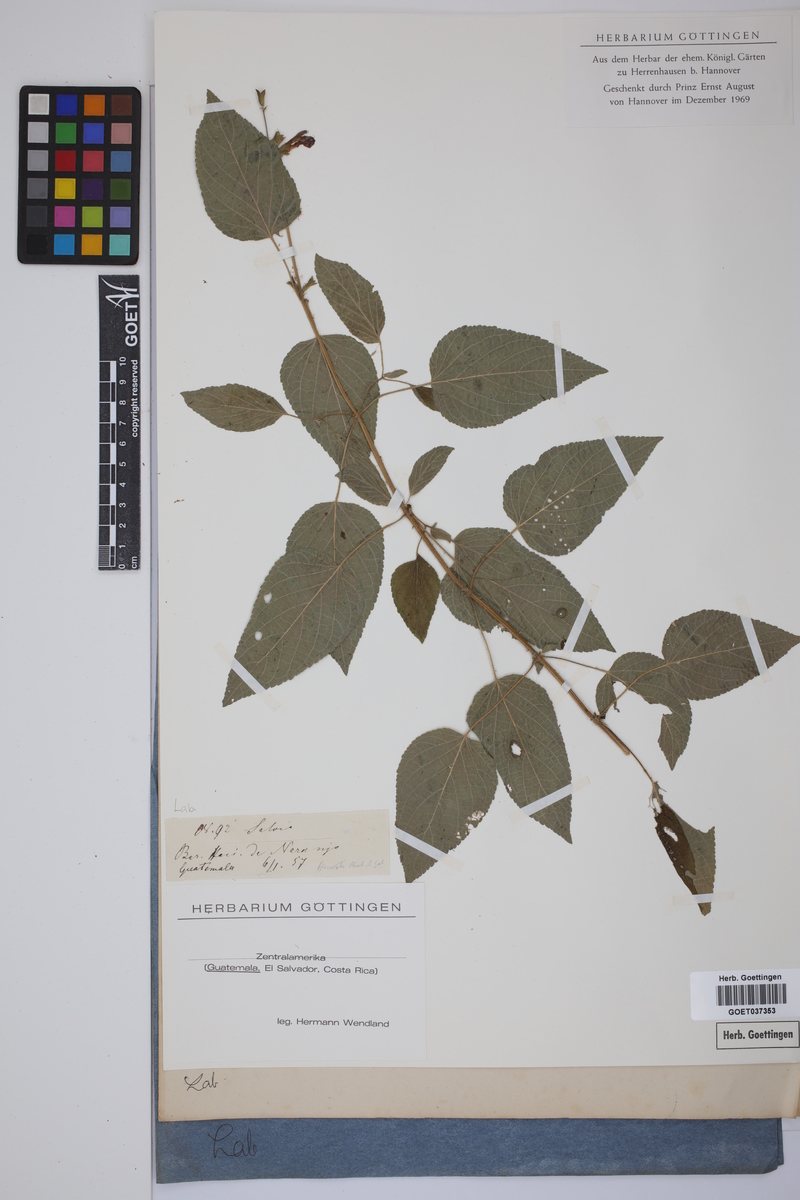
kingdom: Plantae
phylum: Tracheophyta
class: Magnoliopsida
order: Lamiales
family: Lamiaceae
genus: Salvia
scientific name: Salvia
